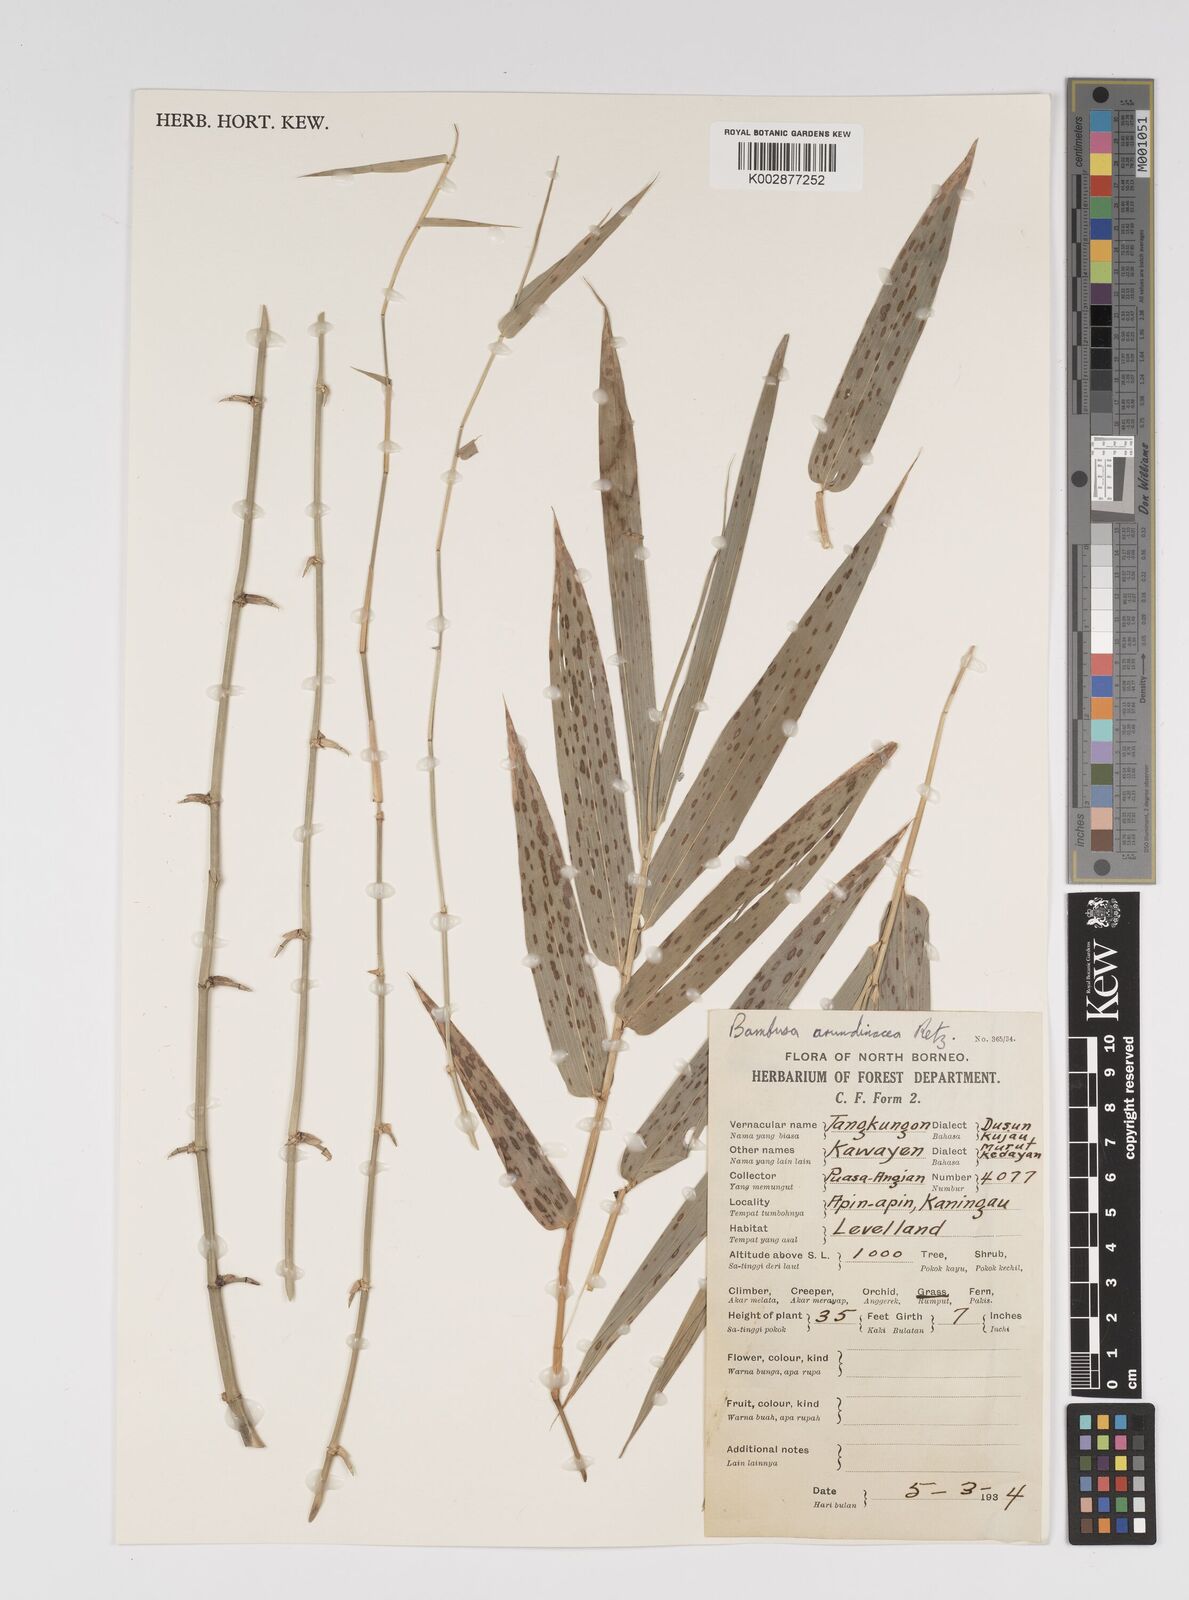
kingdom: Plantae
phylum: Tracheophyta
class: Liliopsida
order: Poales
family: Poaceae
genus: Bambusa
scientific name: Bambusa spinosa
